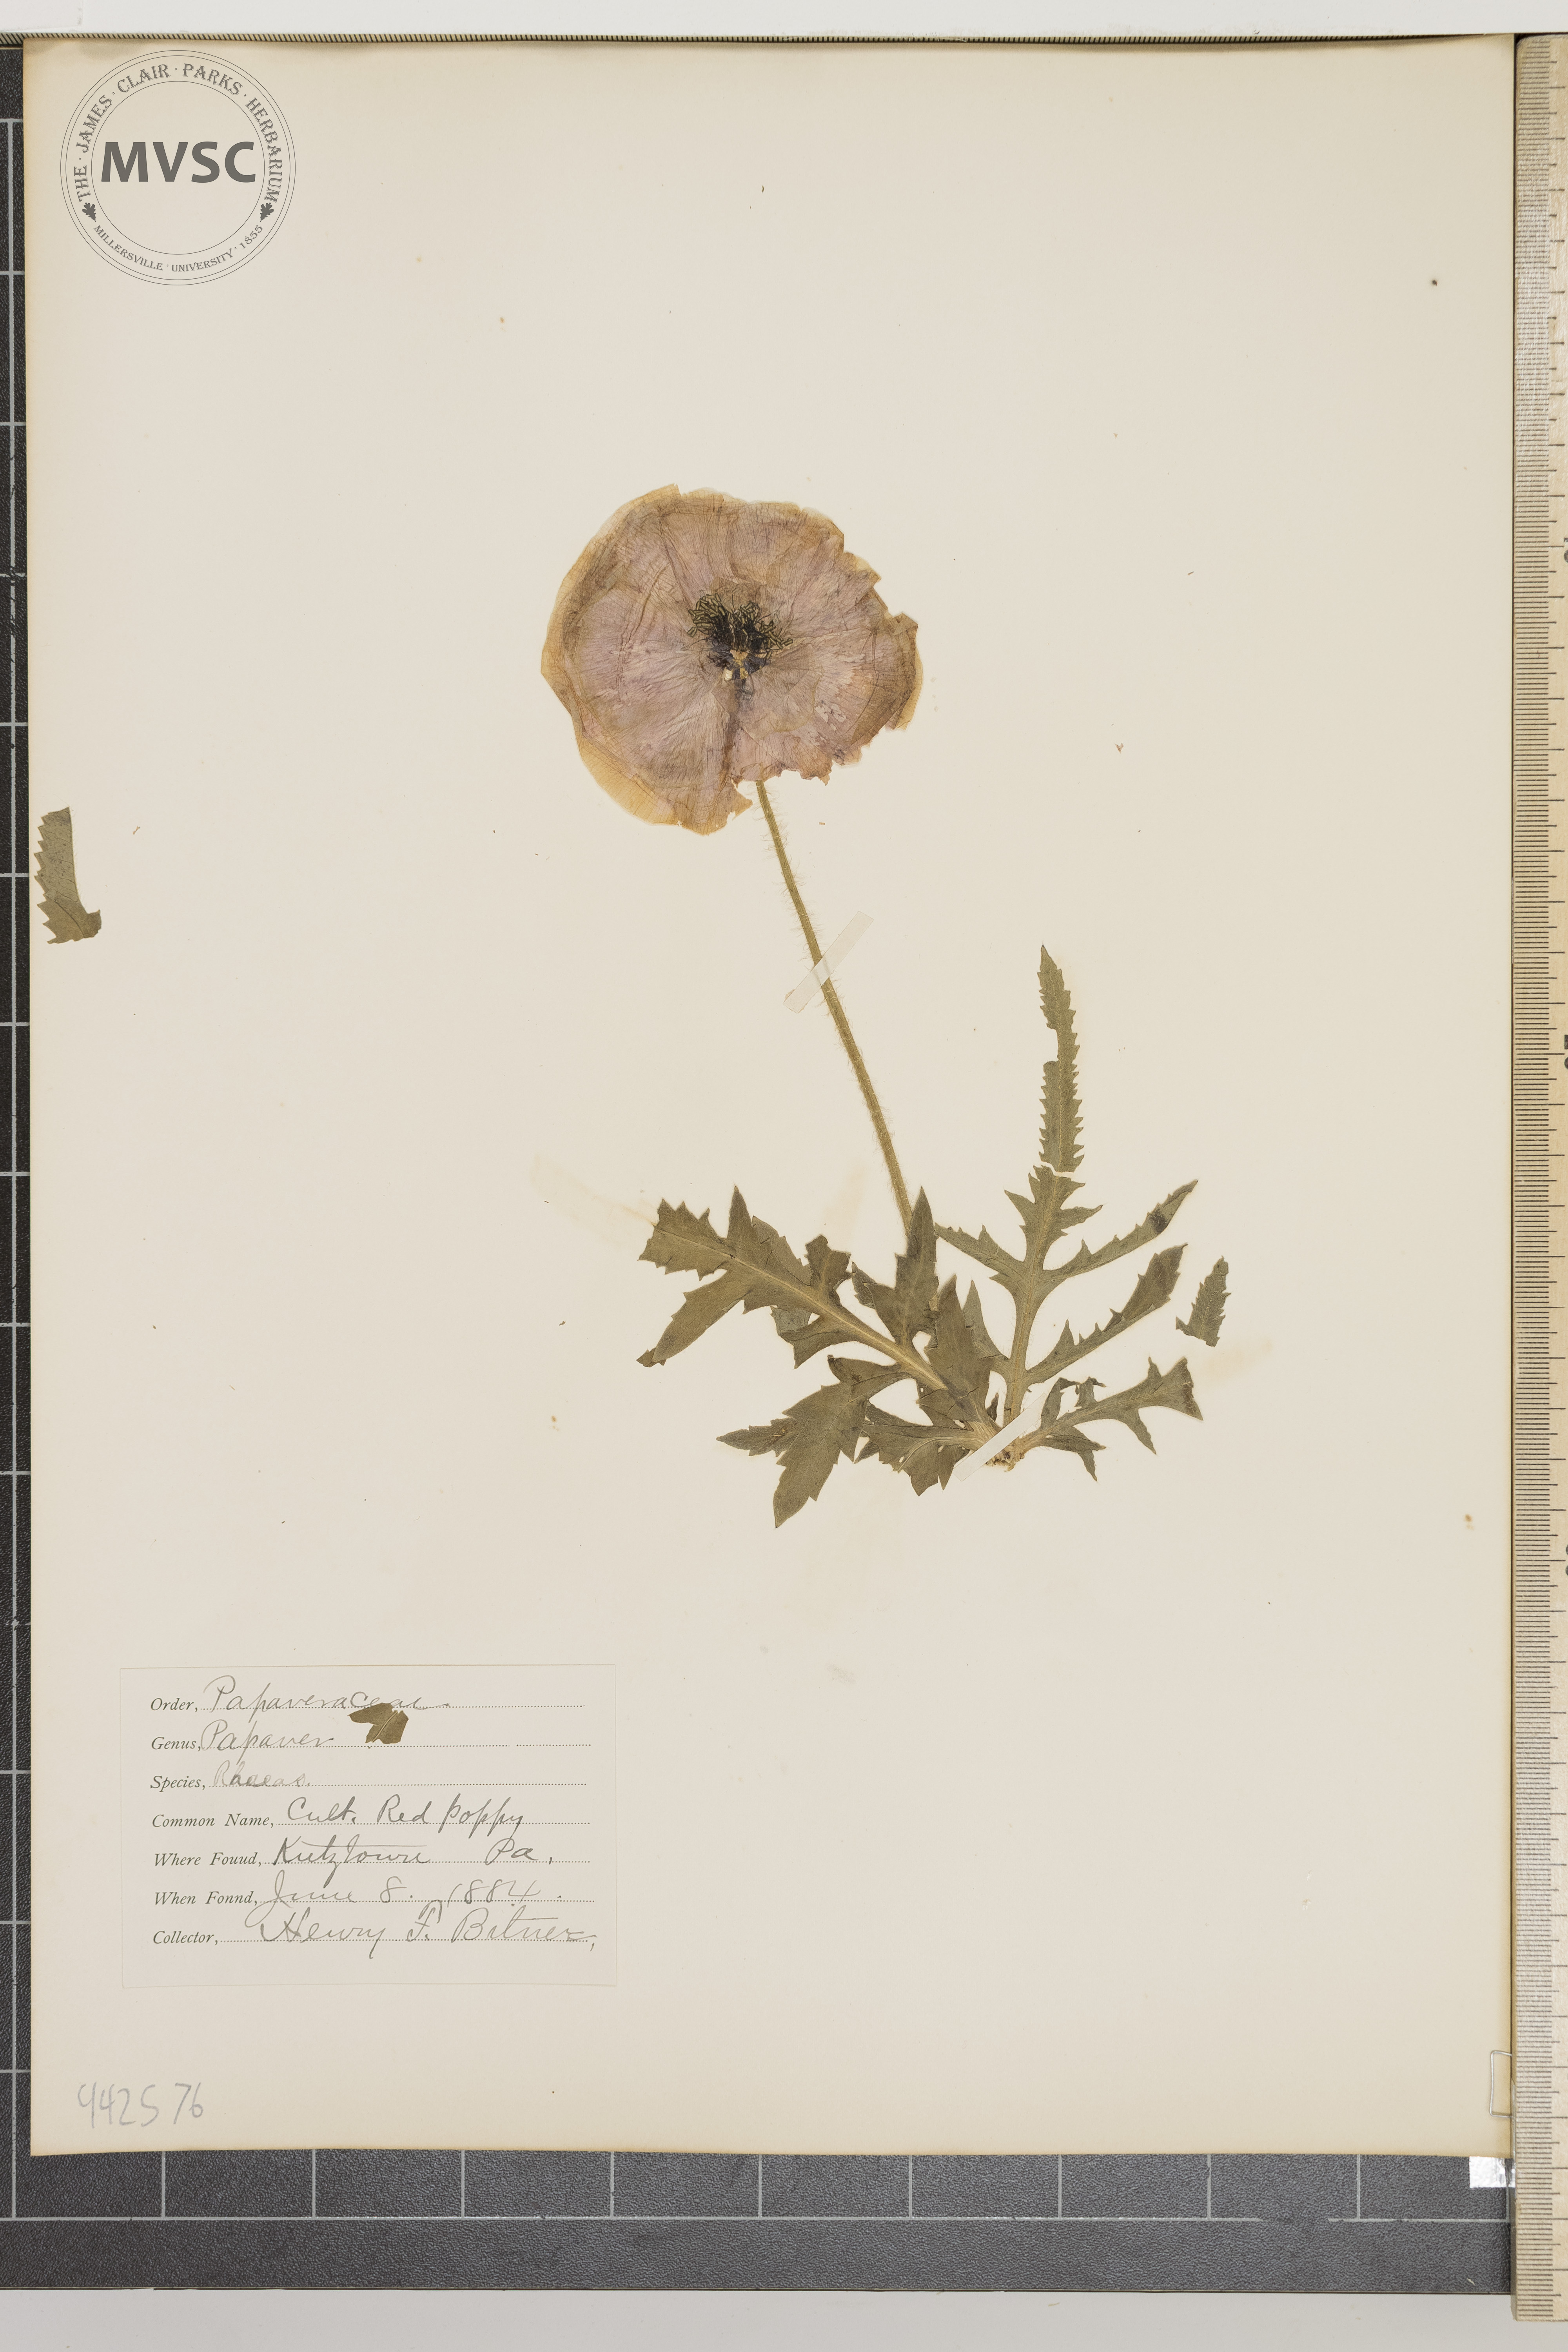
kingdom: Plantae
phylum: Tracheophyta
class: Magnoliopsida
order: Ranunculales
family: Papaveraceae
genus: Papaver
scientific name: Papaver rhoeas
